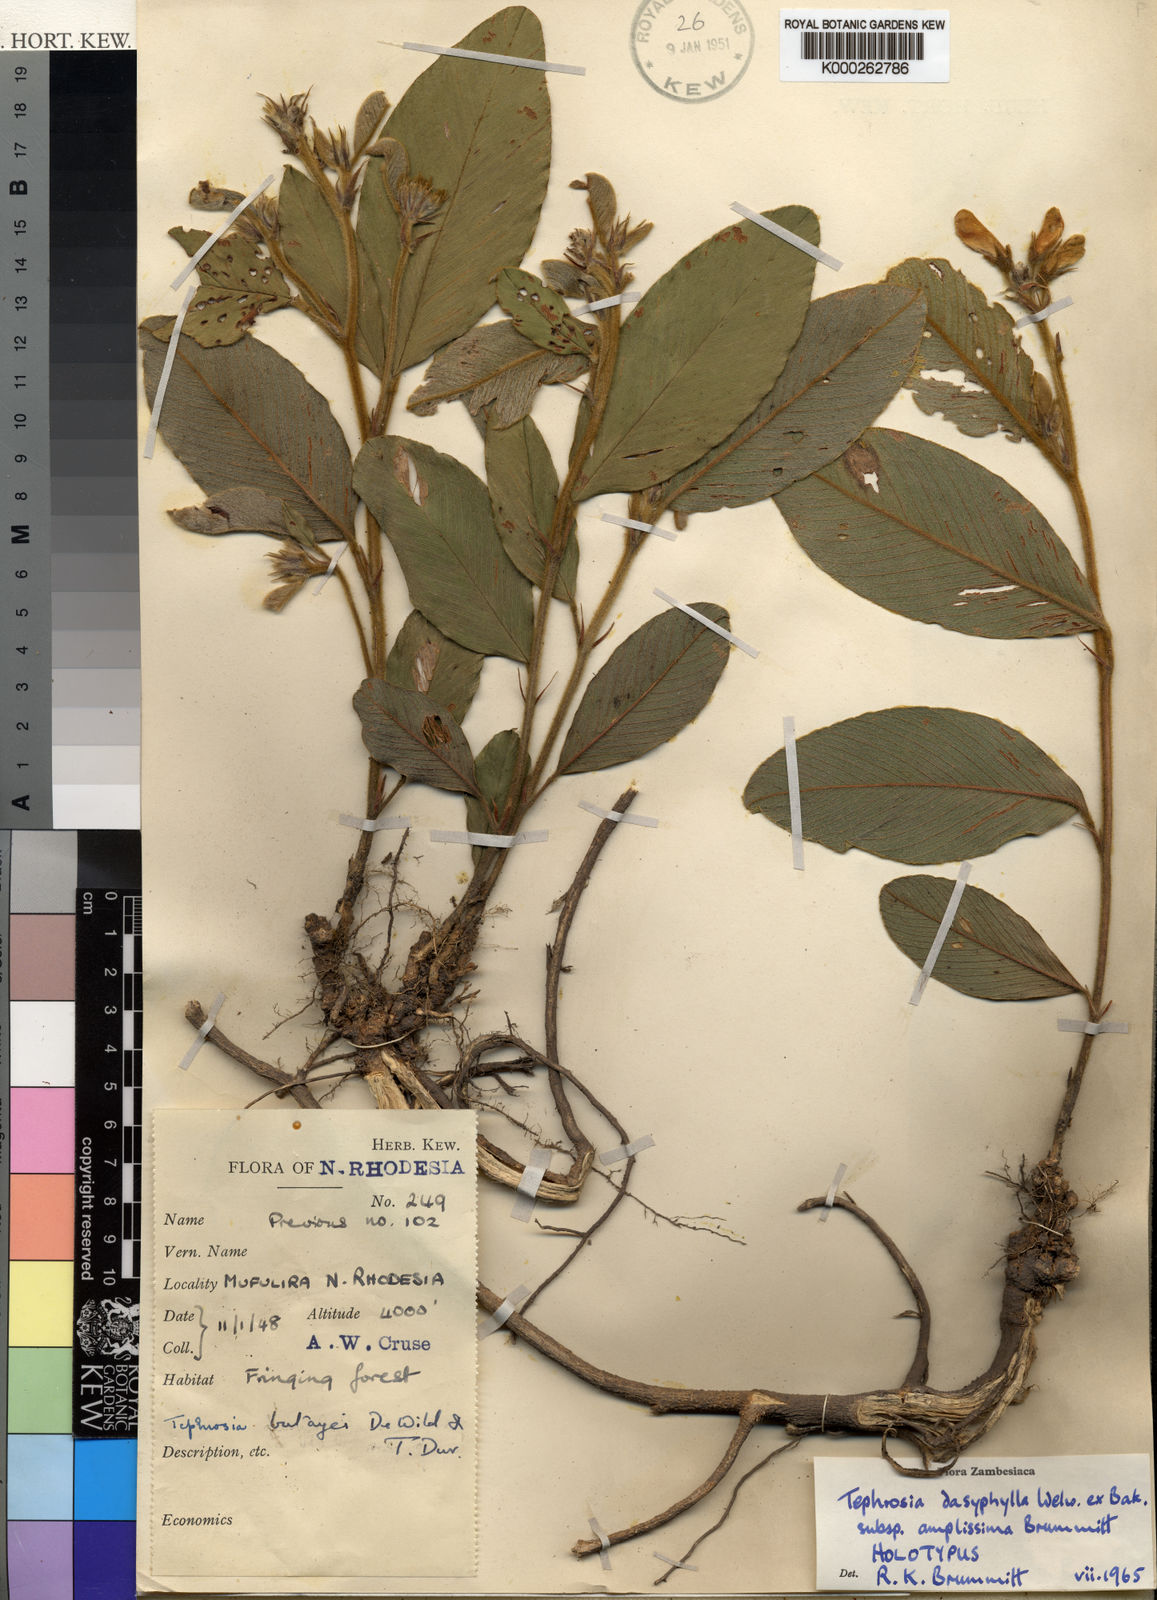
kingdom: Plantae
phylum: Tracheophyta
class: Magnoliopsida
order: Fabales
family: Fabaceae
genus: Tephrosia
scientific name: Tephrosia dasyphylla
